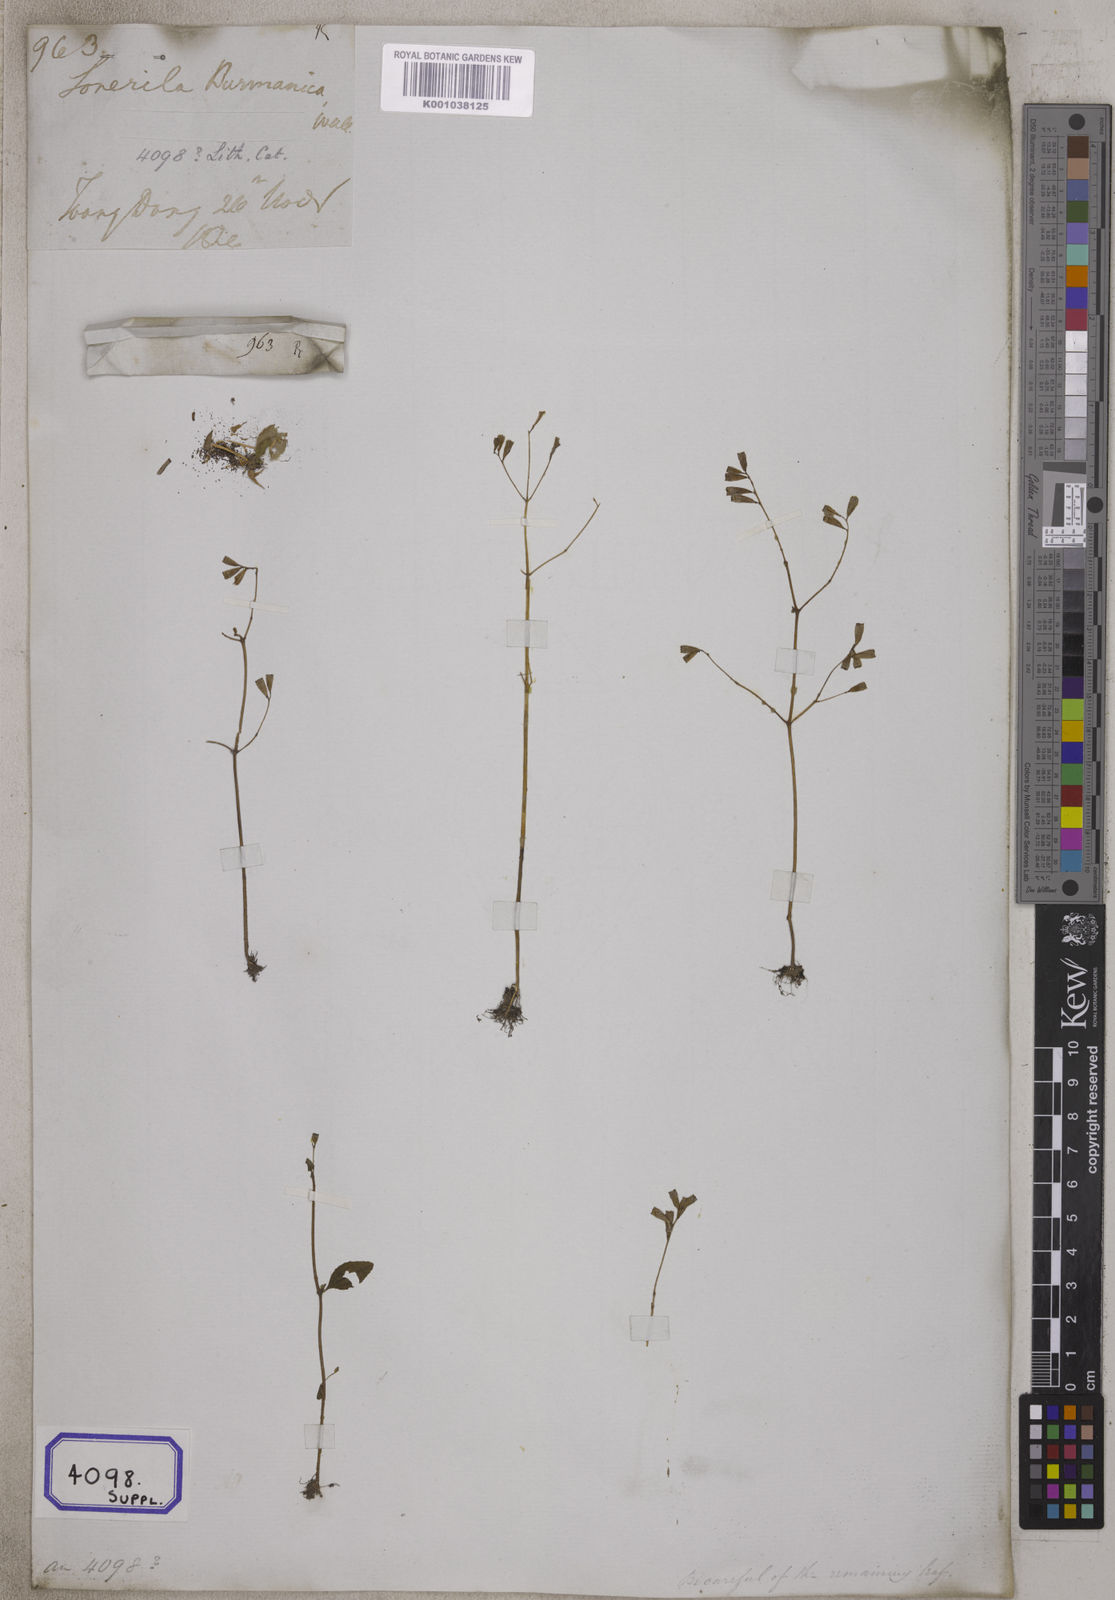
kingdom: Plantae
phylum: Tracheophyta
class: Magnoliopsida
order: Myrtales
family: Melastomataceae
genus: Sonerila
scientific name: Sonerila
